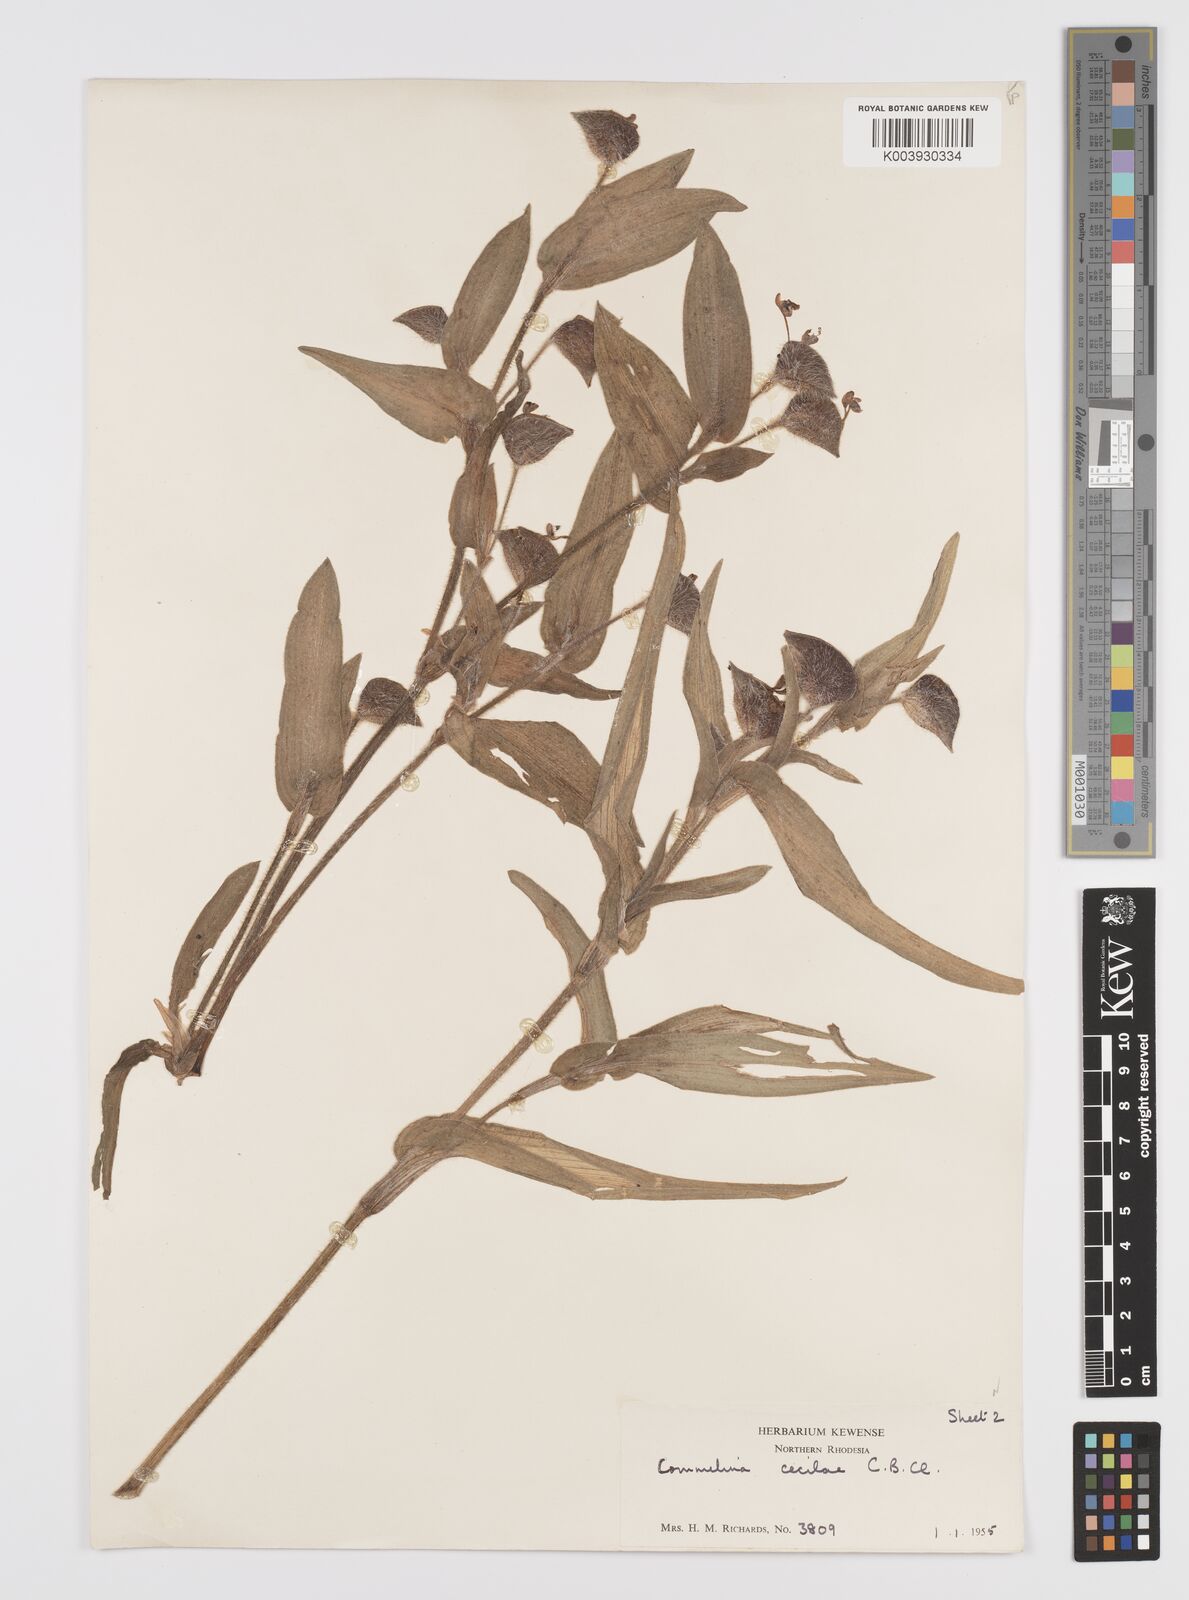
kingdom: Plantae
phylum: Tracheophyta
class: Liliopsida
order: Commelinales
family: Commelinaceae
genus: Commelina
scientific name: Commelina cecilae
